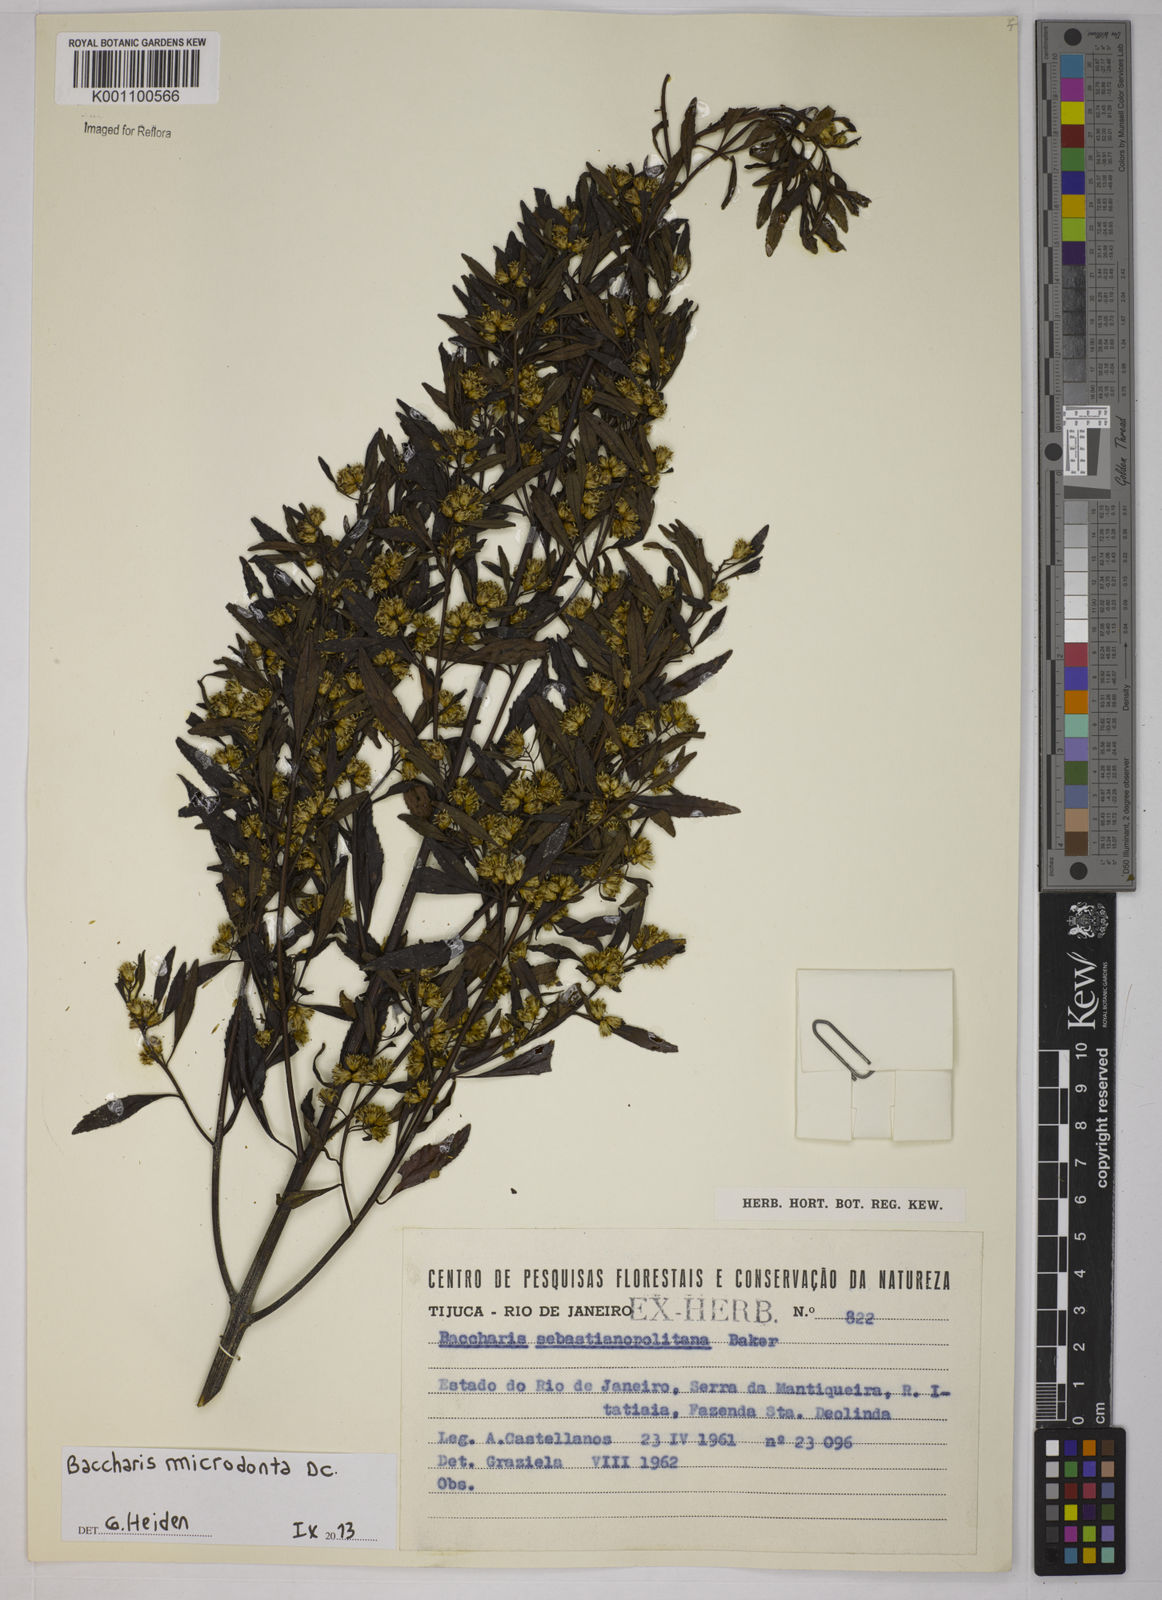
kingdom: Plantae
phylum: Tracheophyta
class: Magnoliopsida
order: Asterales
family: Asteraceae
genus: Baccharis
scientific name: Baccharis microdonta
